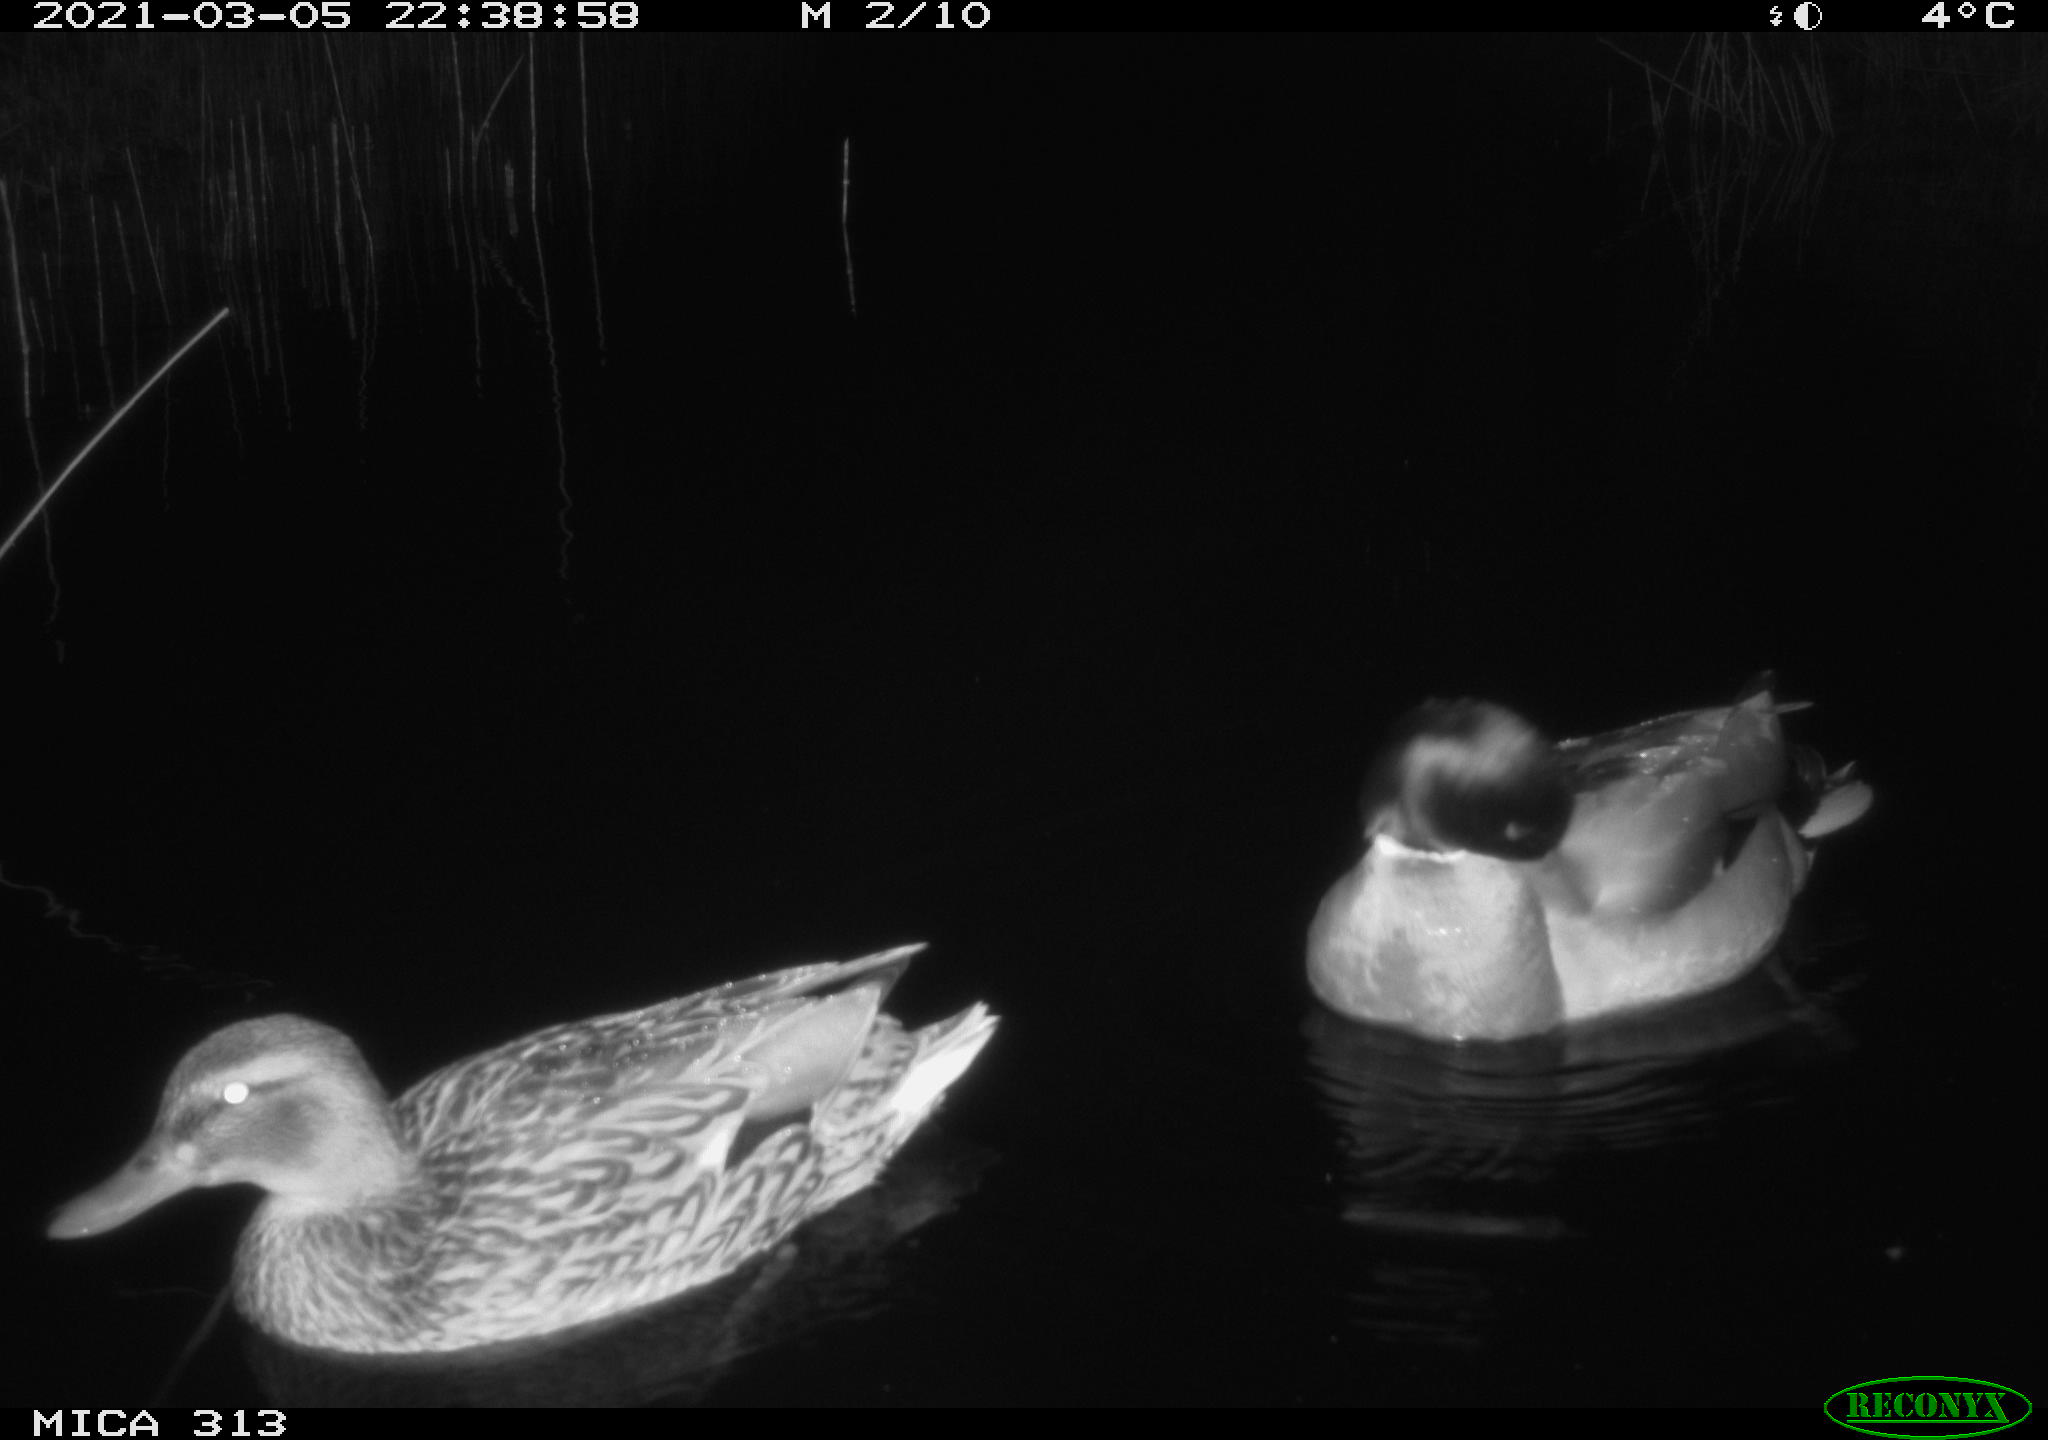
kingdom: Animalia
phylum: Chordata
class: Aves
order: Anseriformes
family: Anatidae
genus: Anas
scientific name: Anas platyrhynchos
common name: Mallard
